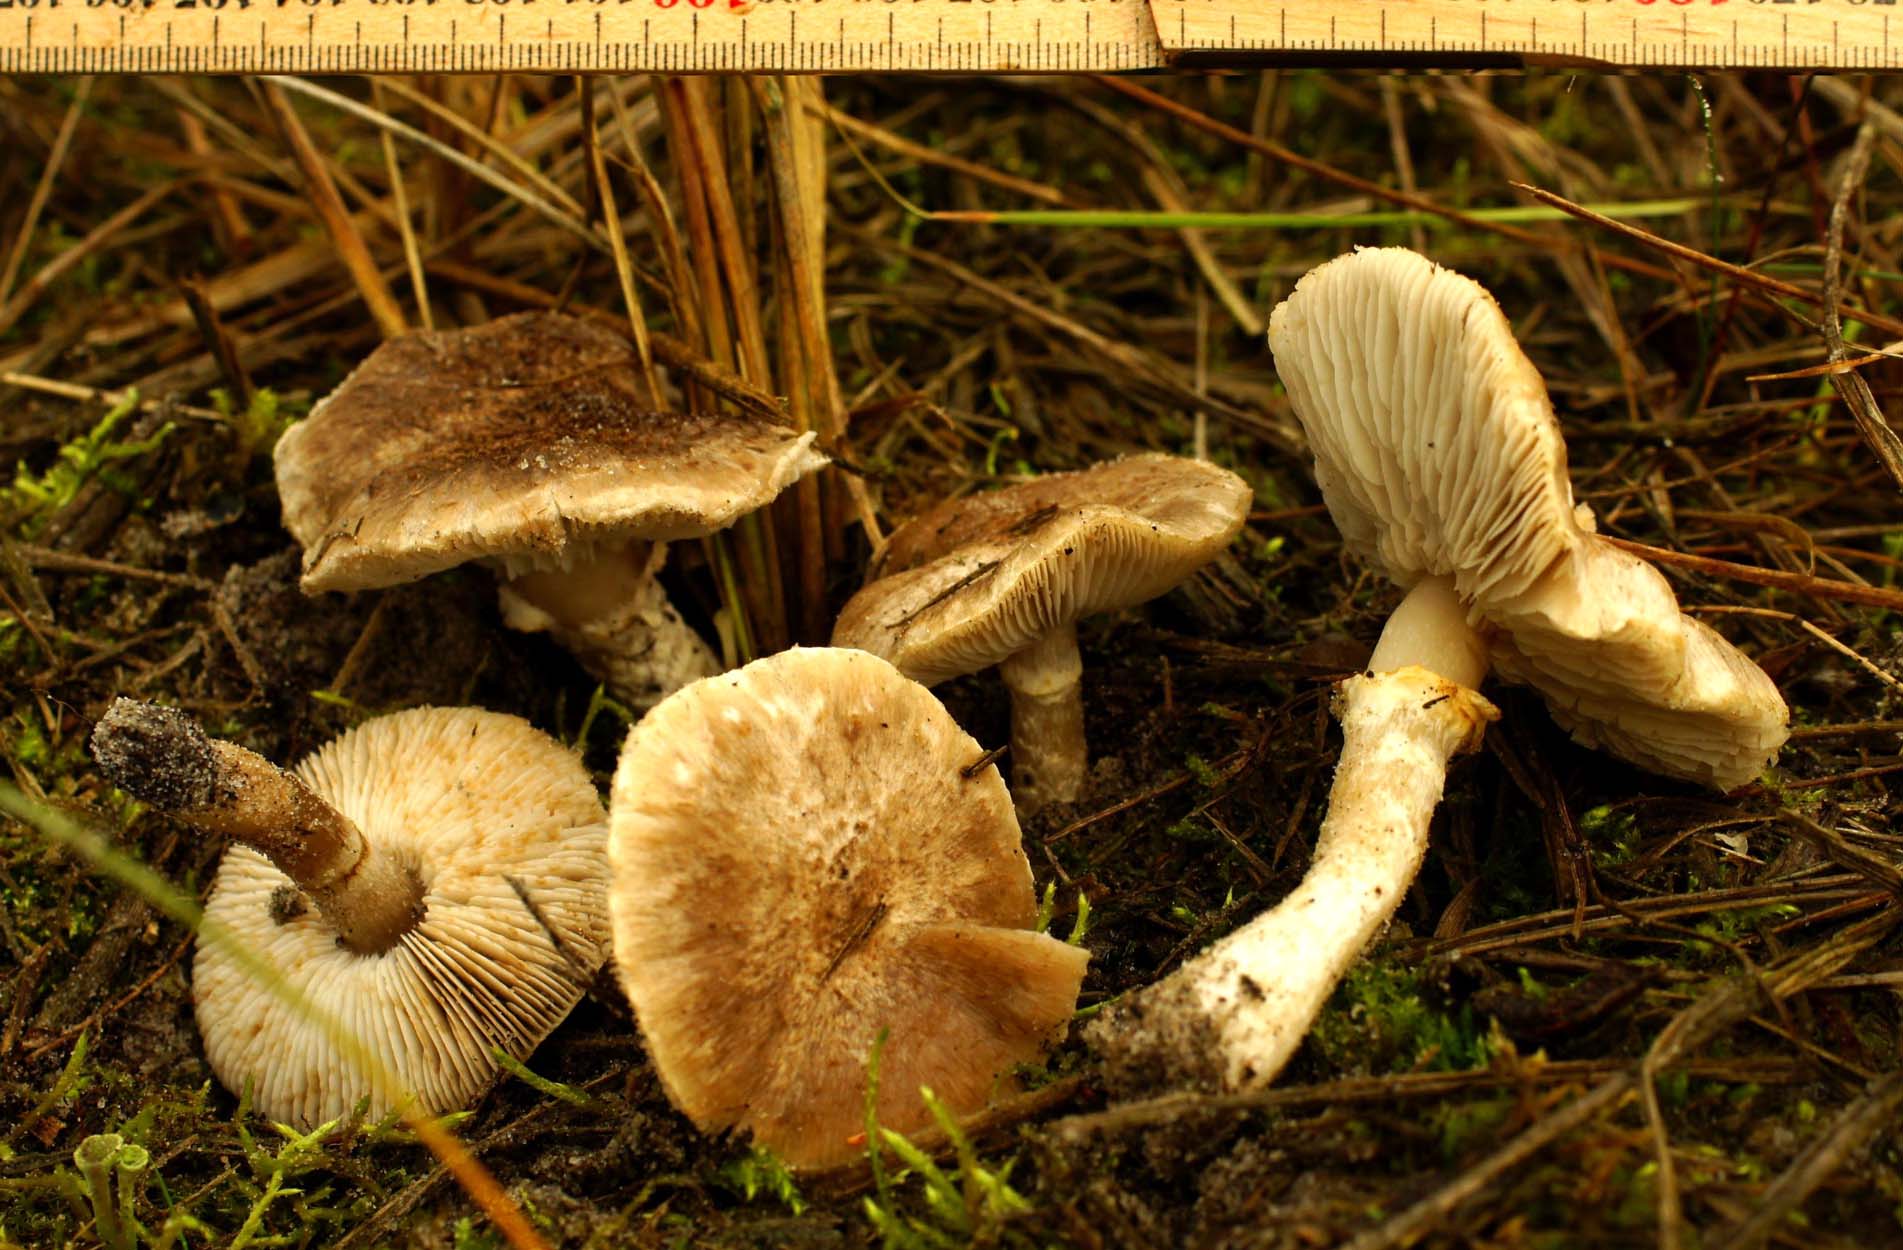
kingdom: Fungi
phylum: Basidiomycota
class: Agaricomycetes
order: Agaricales
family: Tricholomataceae
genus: Tricholoma
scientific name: Tricholoma cingulatum
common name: ring-ridderhat
